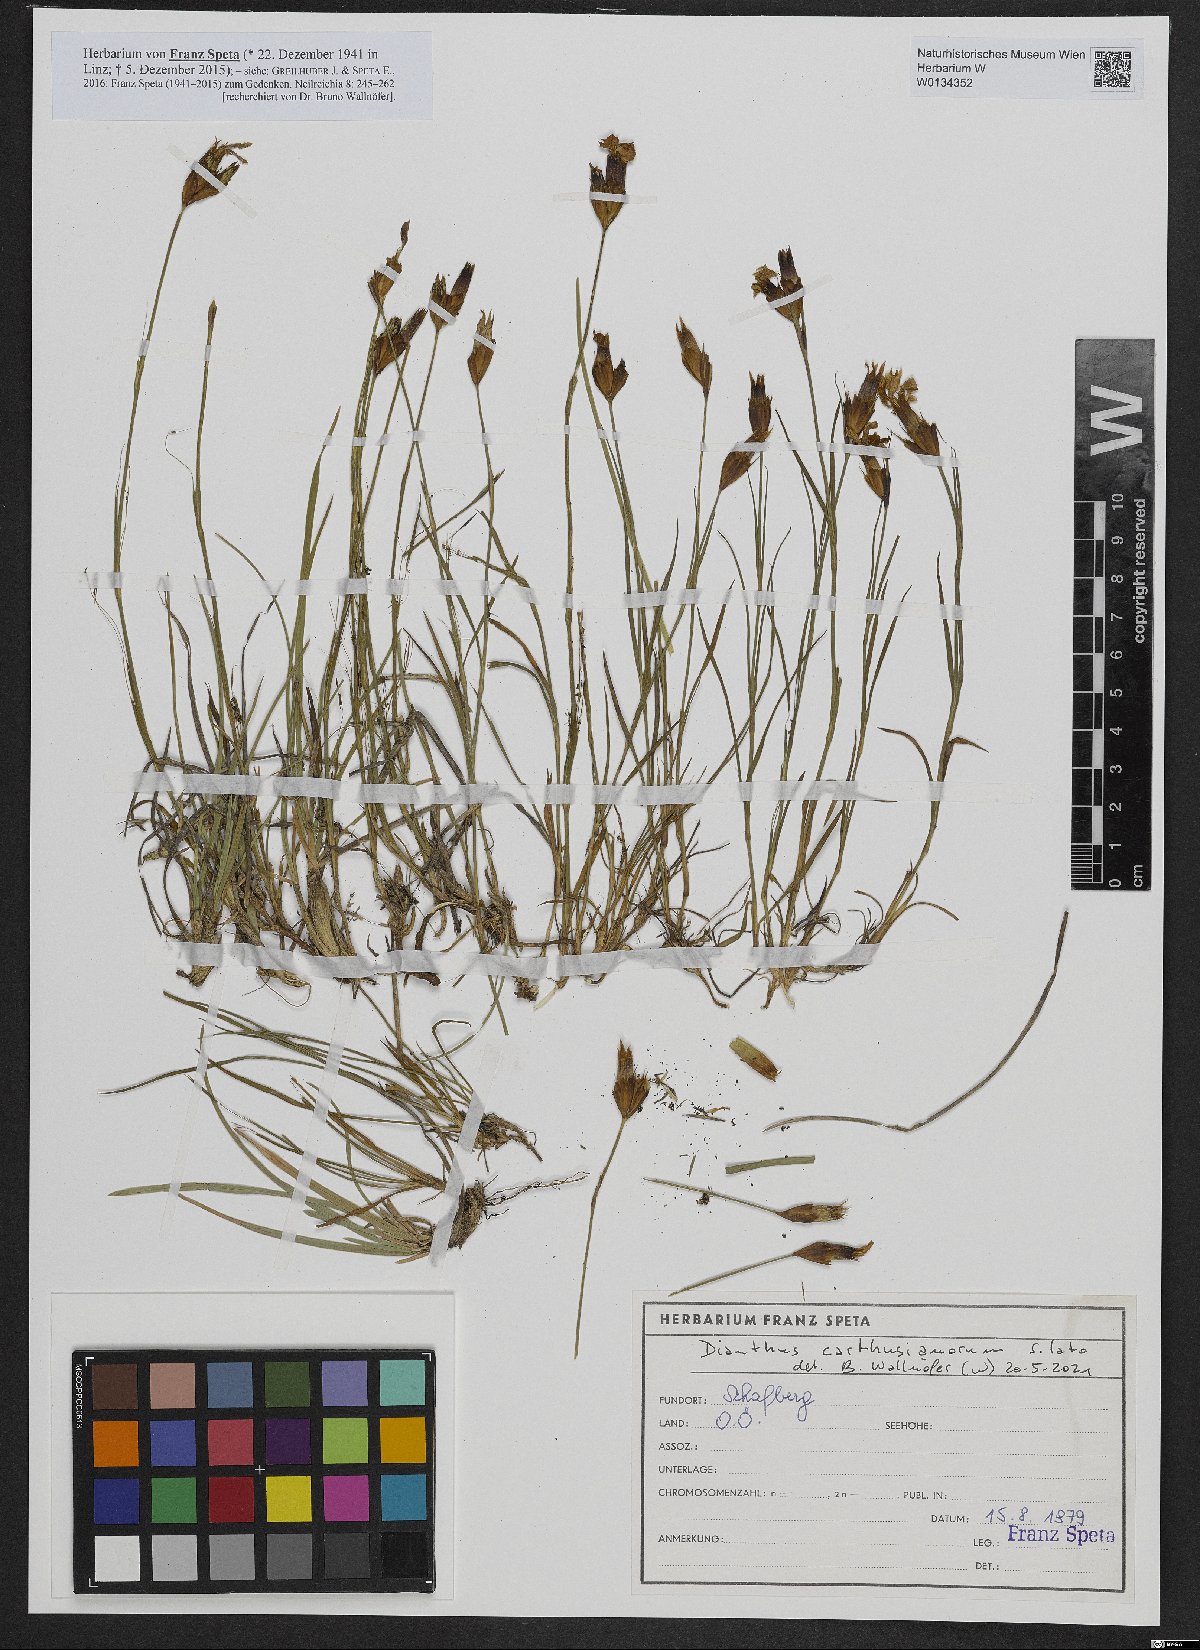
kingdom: Plantae
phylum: Tracheophyta
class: Magnoliopsida
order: Caryophyllales
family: Caryophyllaceae
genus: Dianthus
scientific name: Dianthus carthusianorum
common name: Carthusian pink
